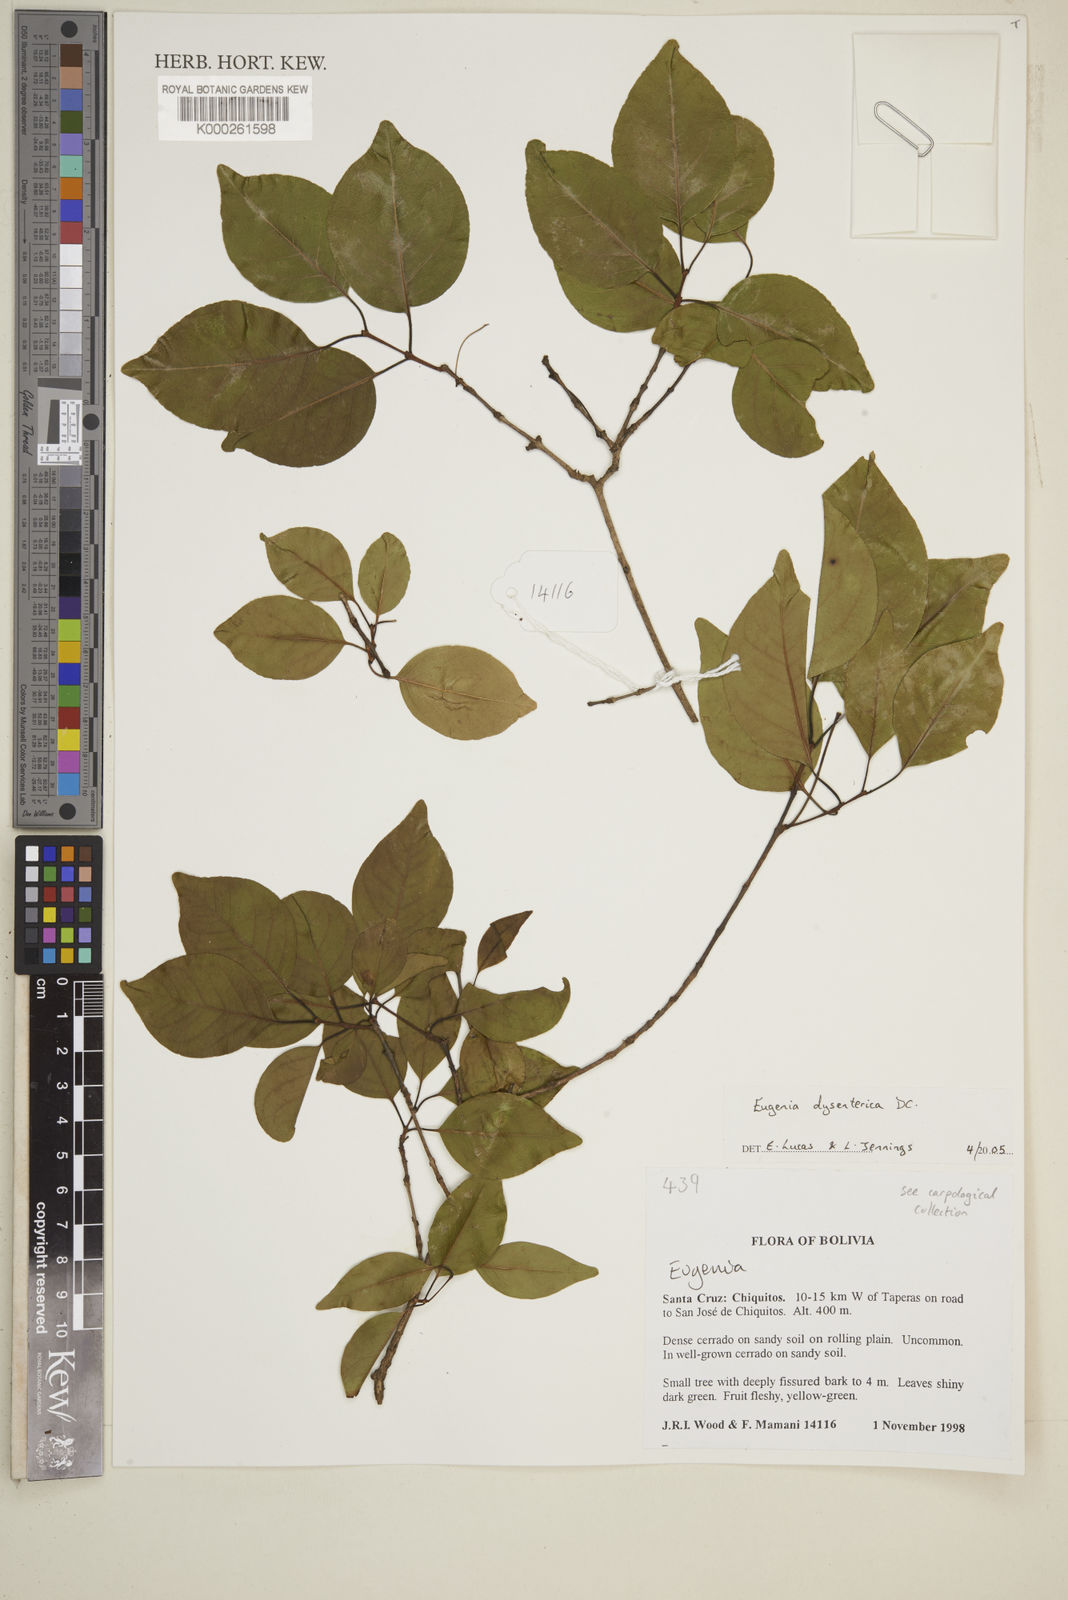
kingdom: Plantae
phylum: Tracheophyta
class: Magnoliopsida
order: Myrtales
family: Myrtaceae
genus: Eugenia
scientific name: Eugenia dysenterica
